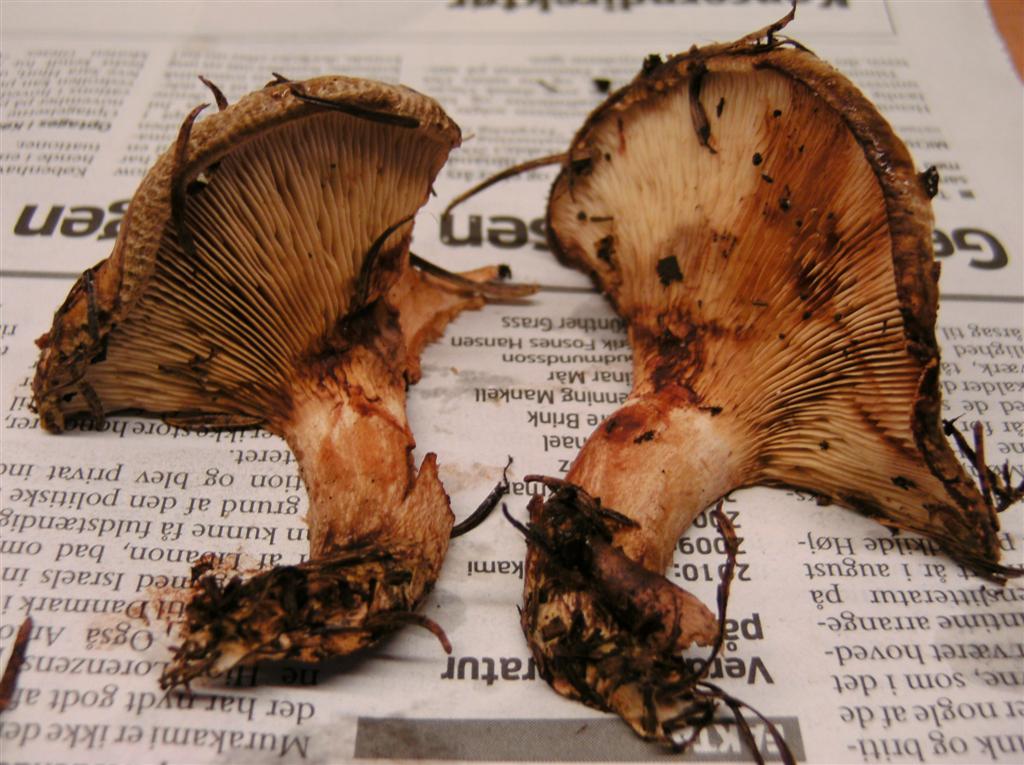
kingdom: Fungi
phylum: Basidiomycota
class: Agaricomycetes
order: Boletales
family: Paxillaceae
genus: Paxillus
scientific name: Paxillus involutus
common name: almindelig netbladhat
